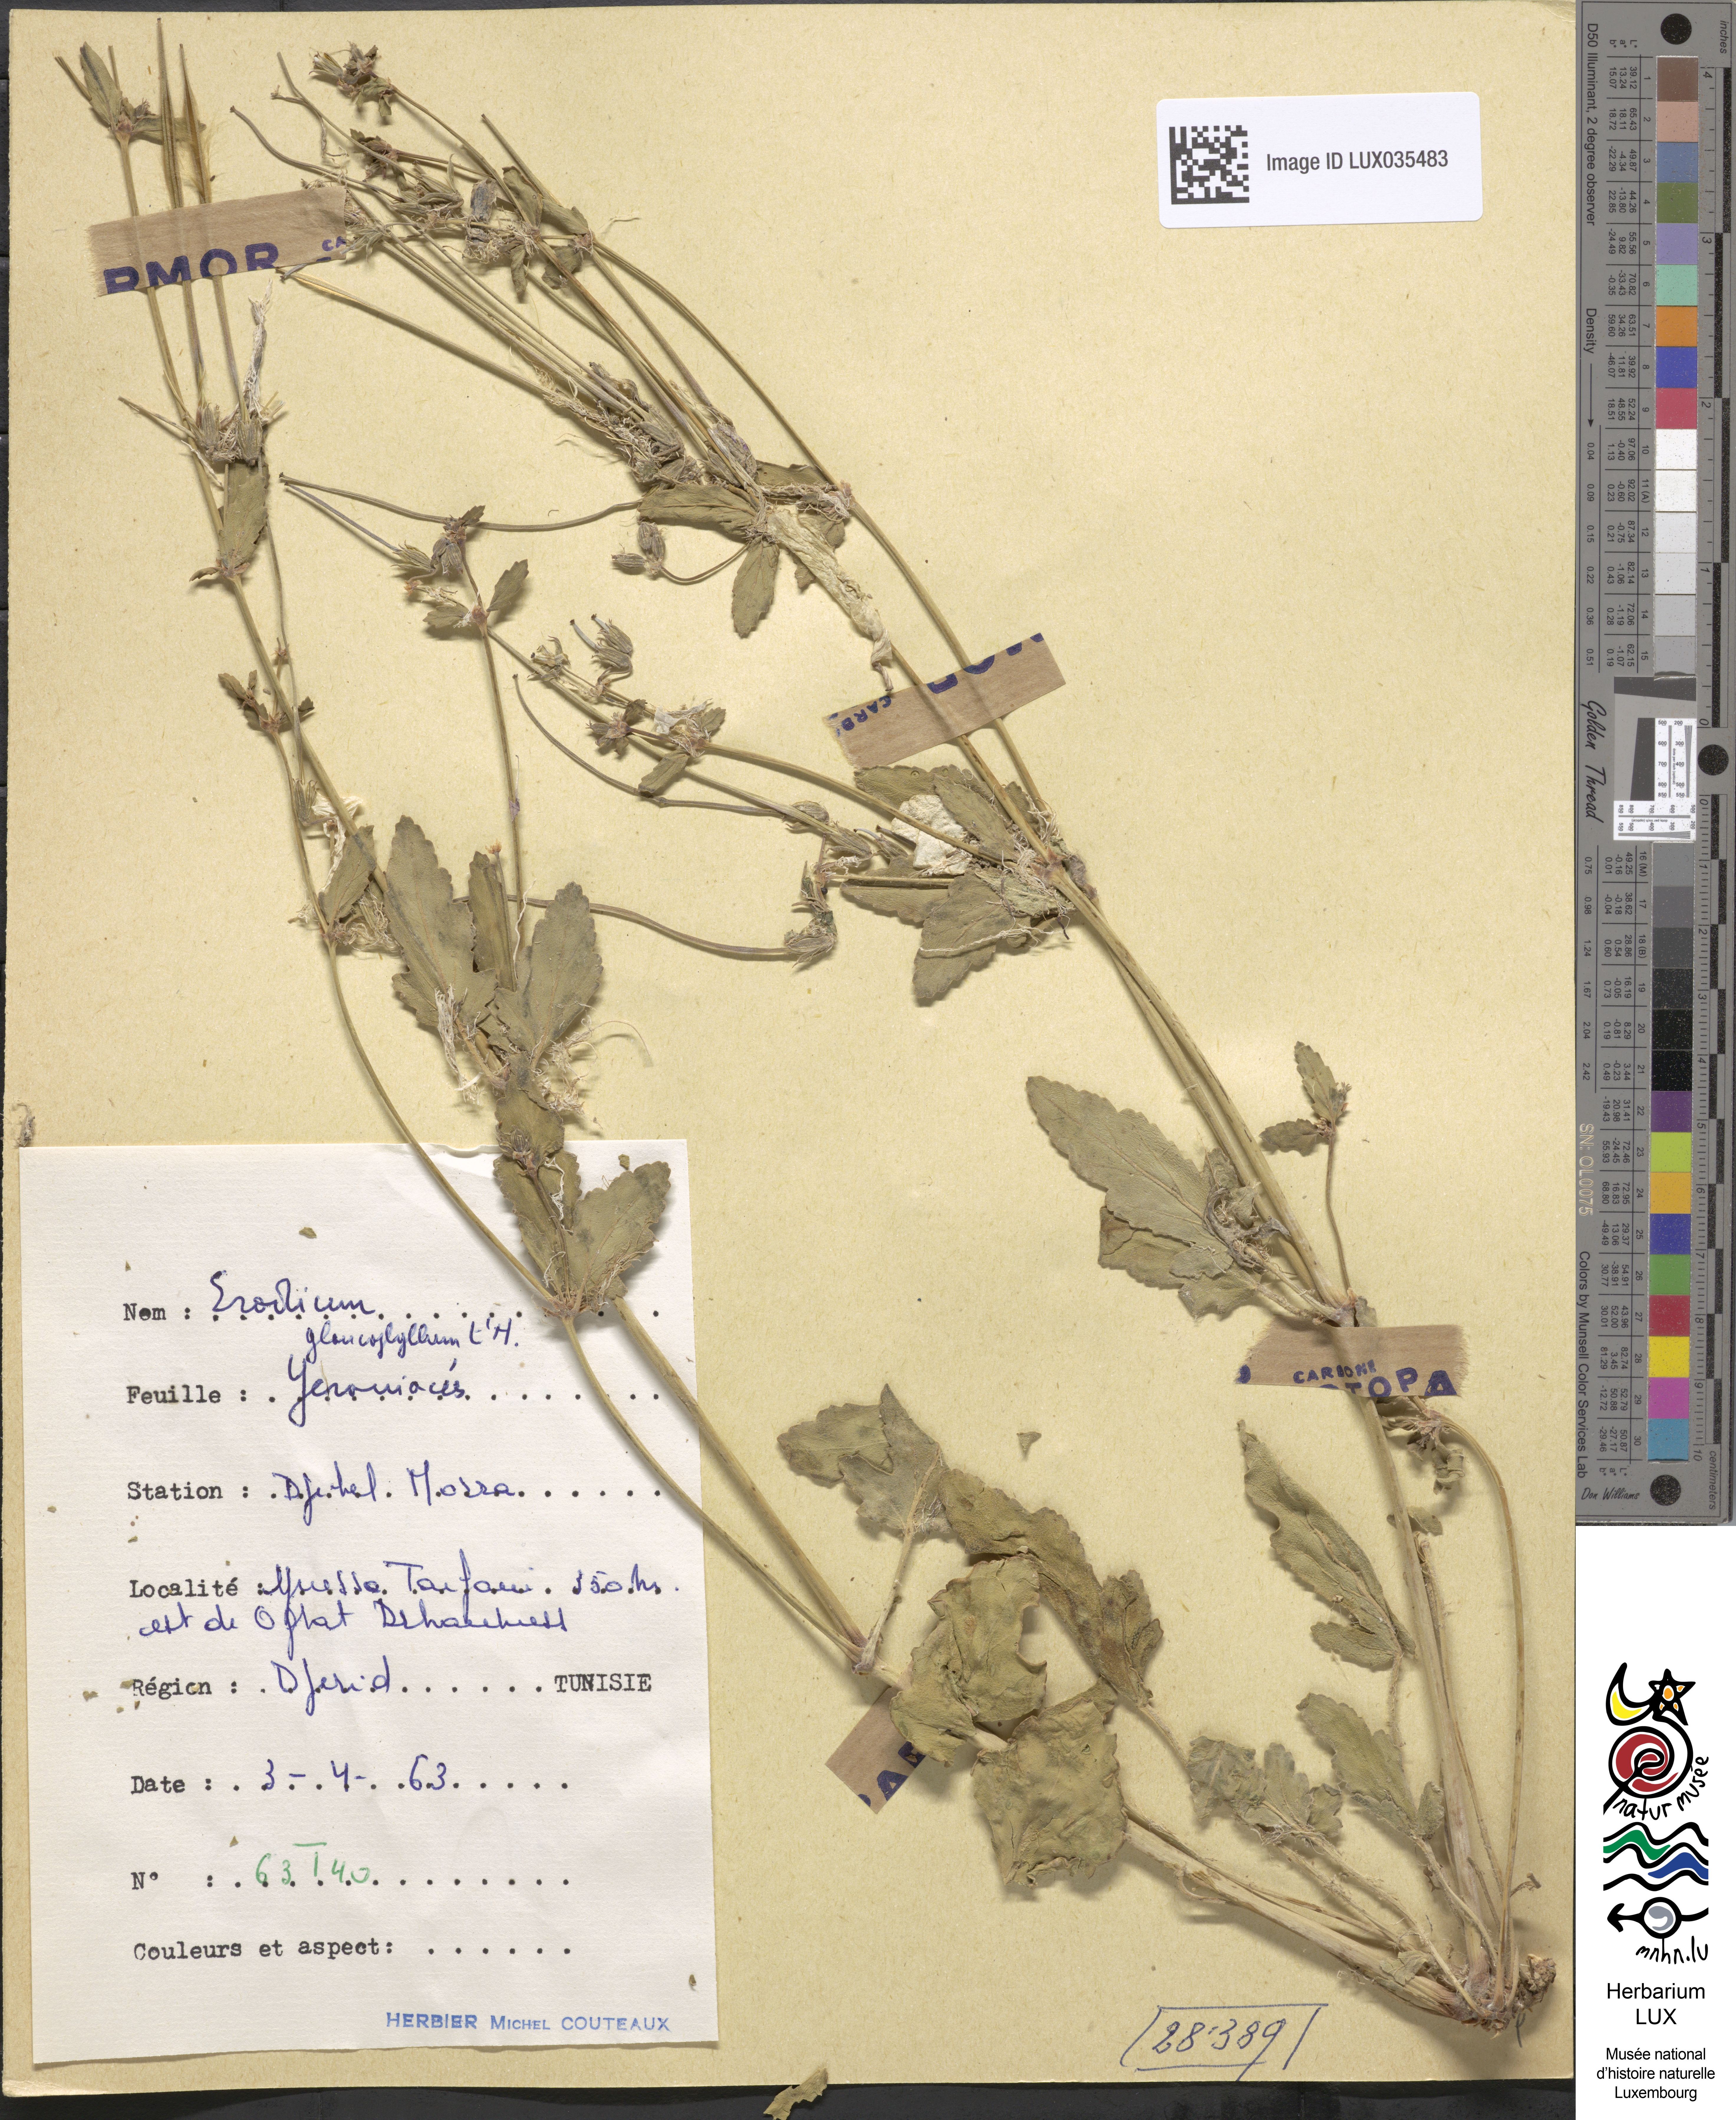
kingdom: Plantae
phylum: Tracheophyta
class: Magnoliopsida
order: Geraniales
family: Geraniaceae
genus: Erodium
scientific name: Erodium glaucophyllum
